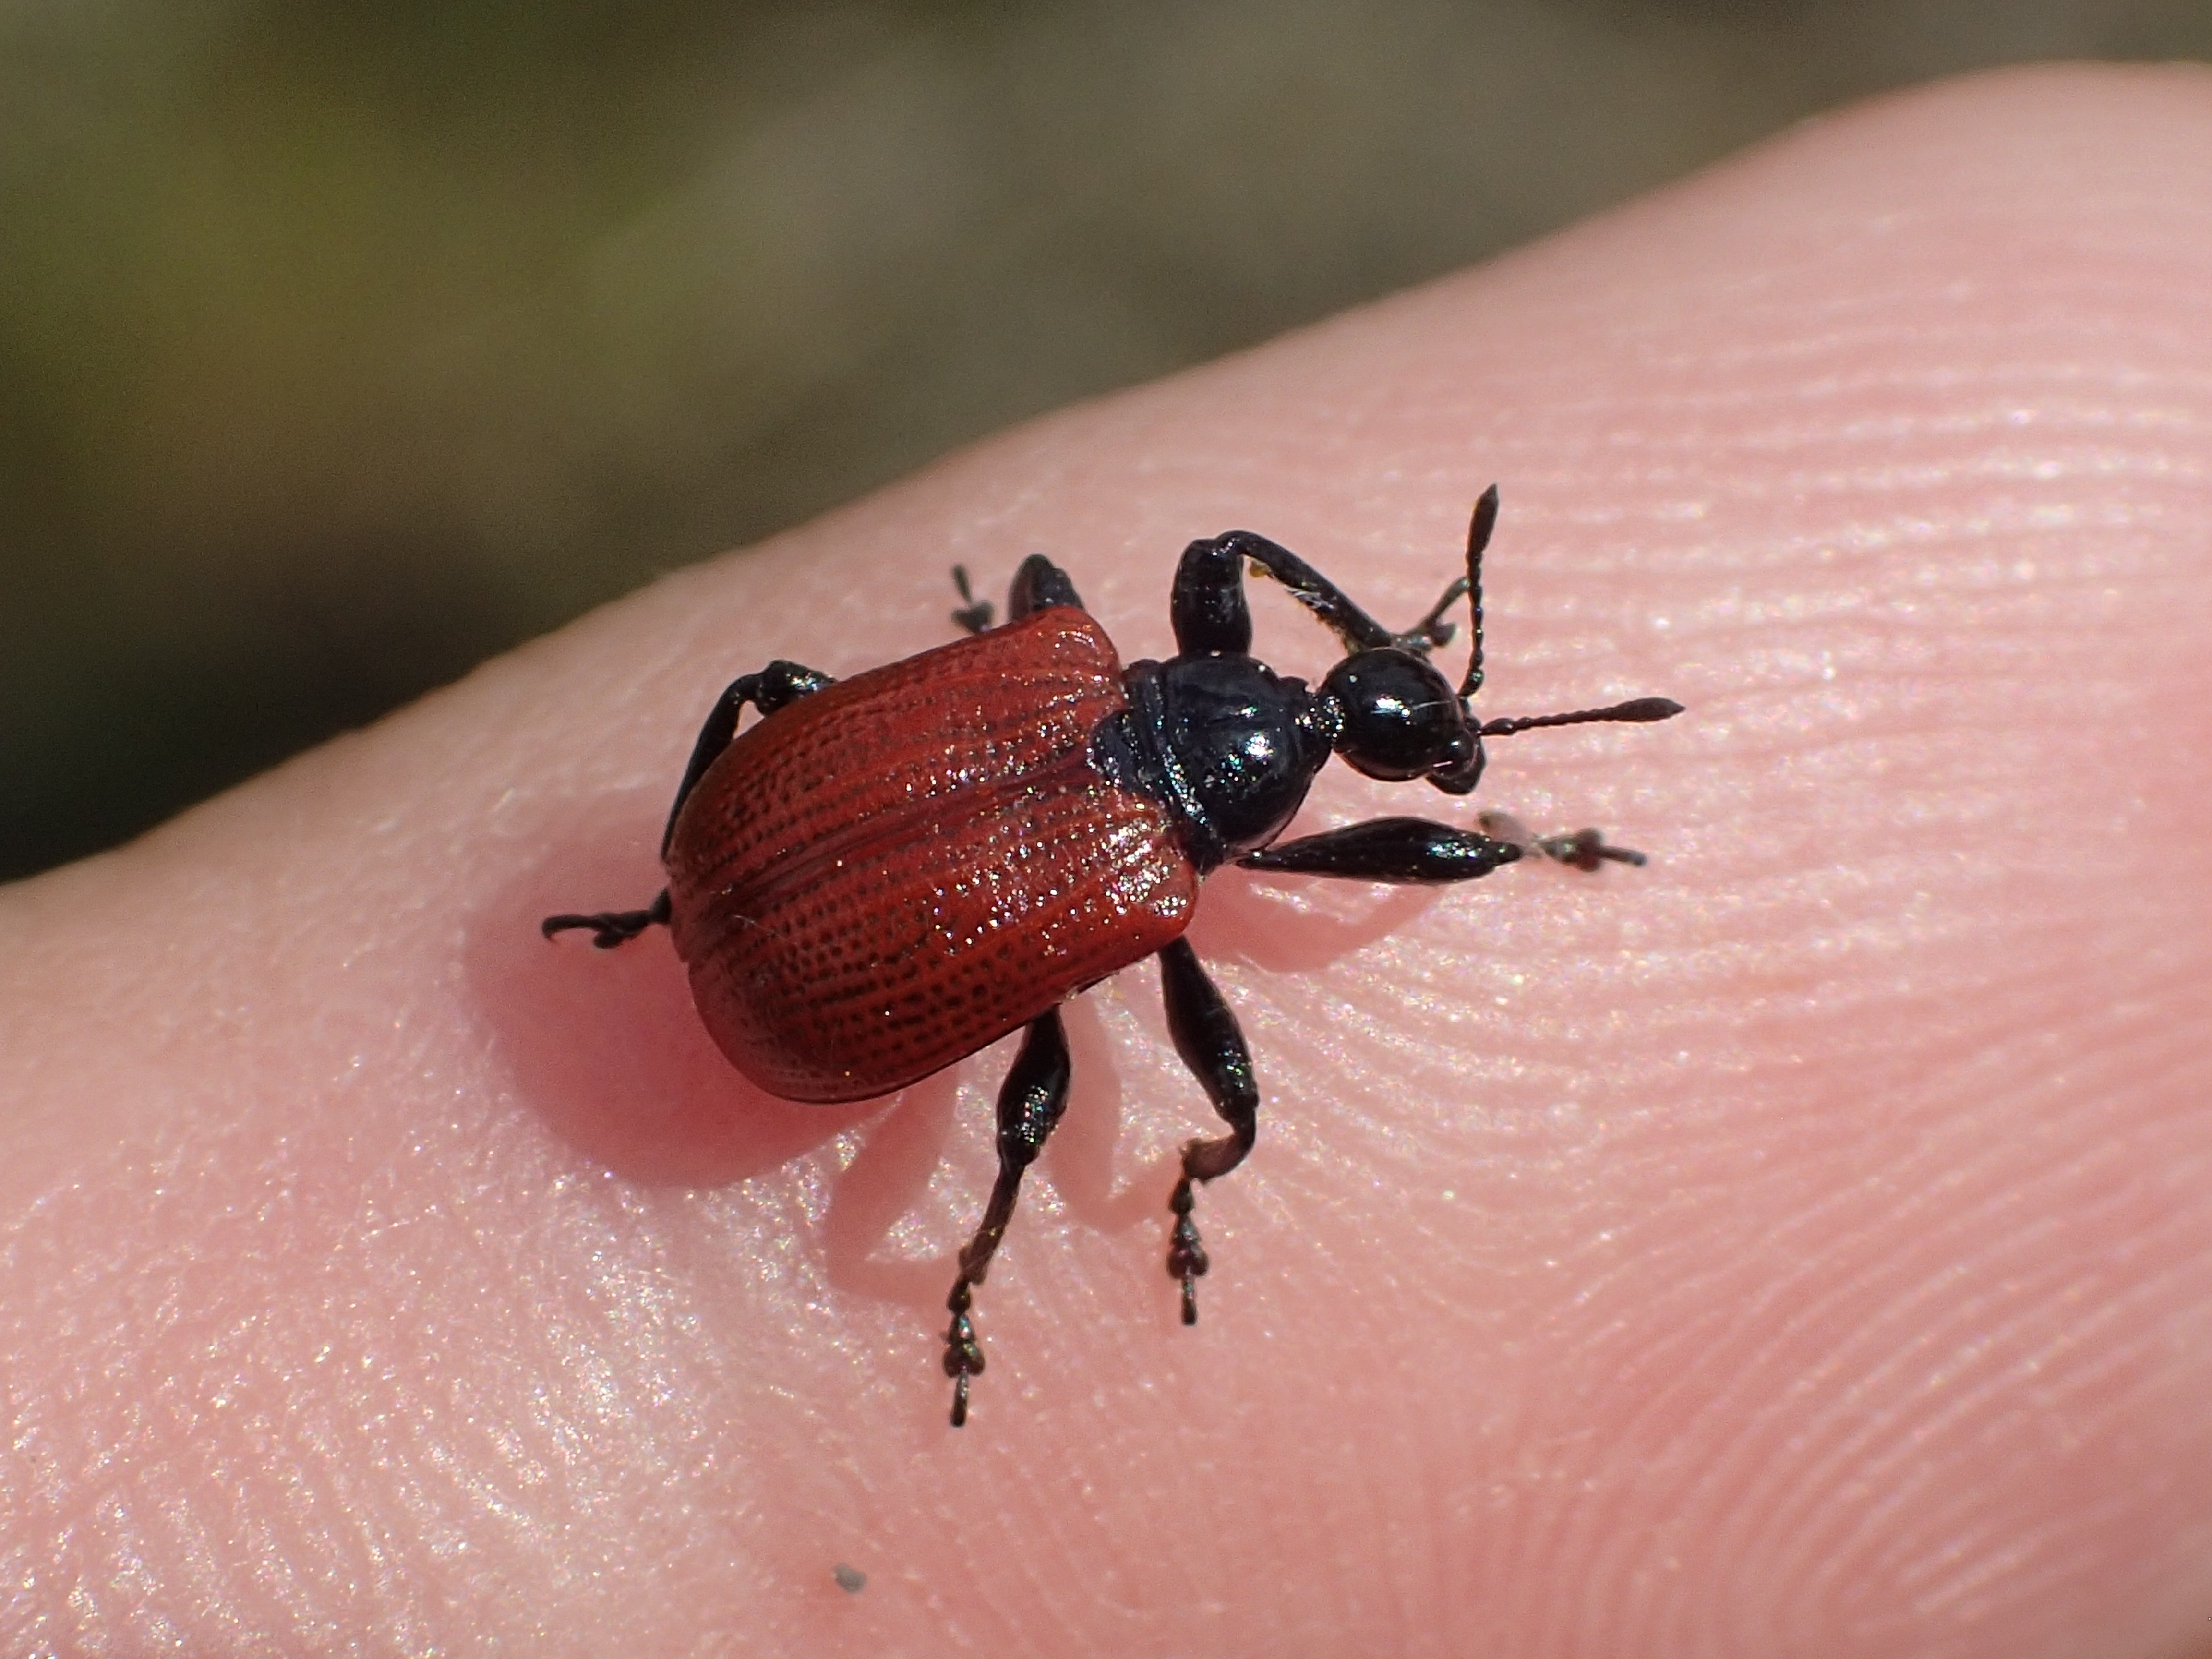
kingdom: Animalia
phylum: Arthropoda
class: Insecta
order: Coleoptera
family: Attelabidae
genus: Apoderus
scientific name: Apoderus coryli
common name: Hazel leaf roller
